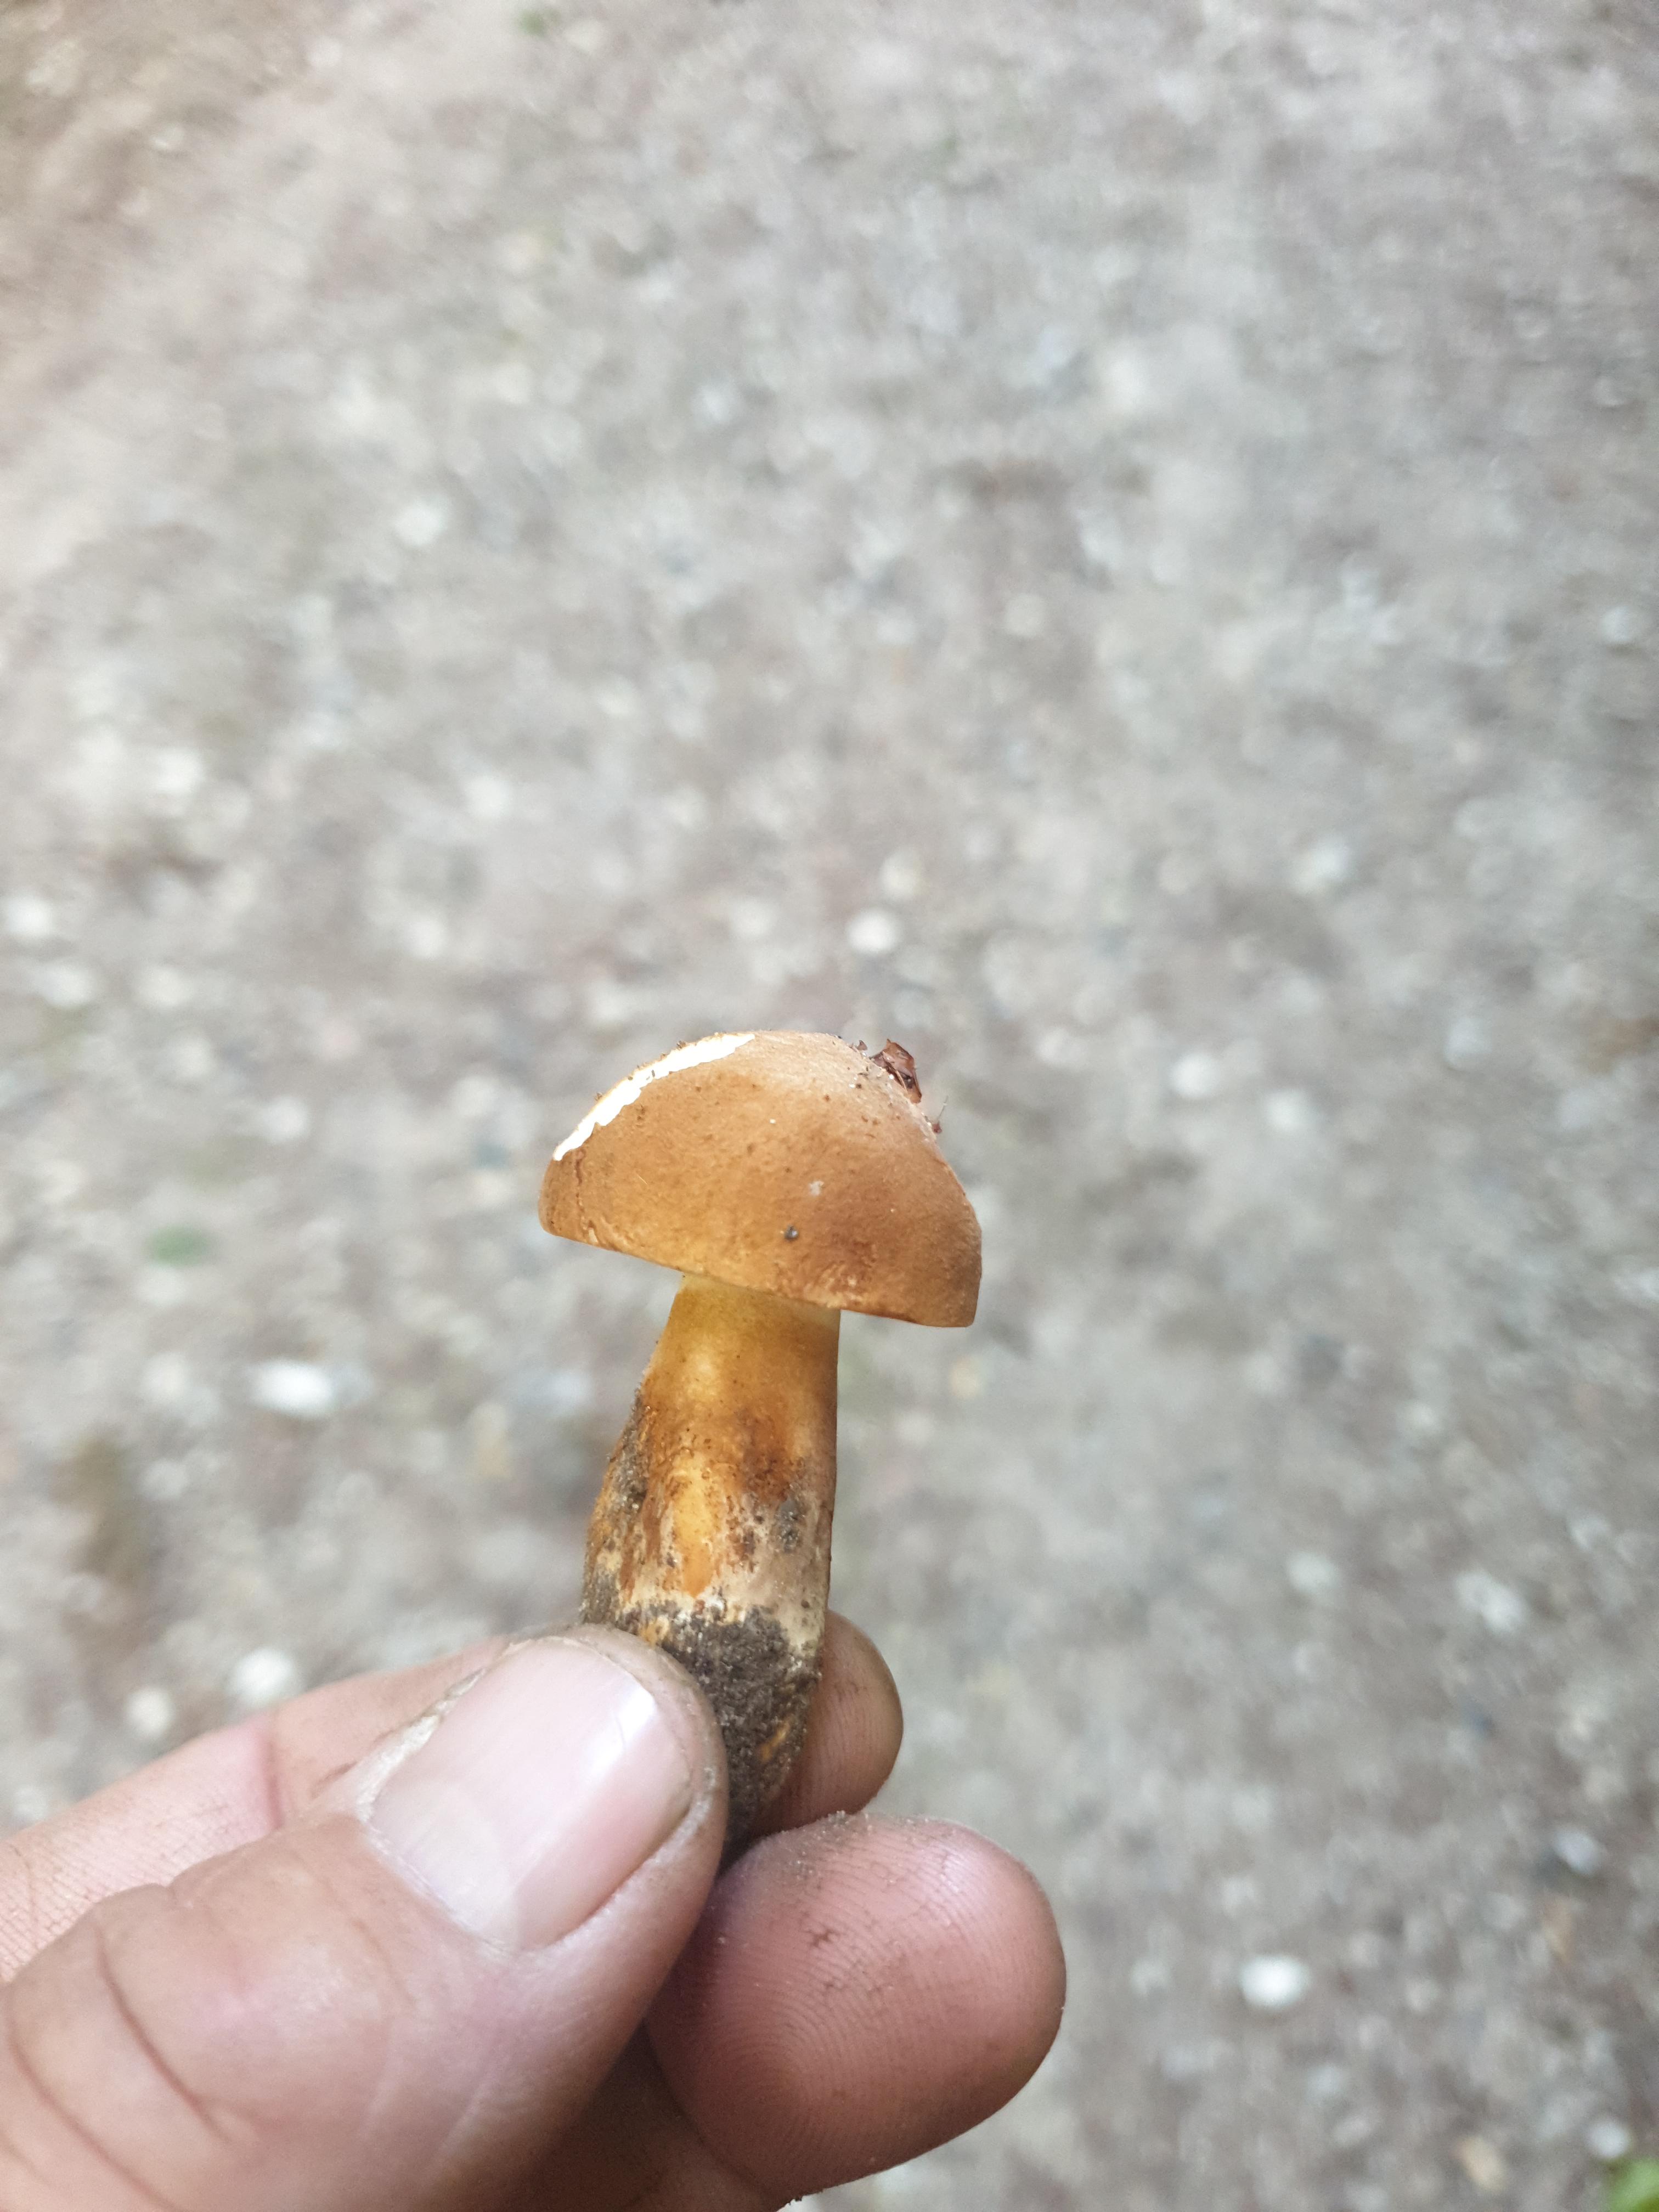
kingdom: Fungi
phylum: Basidiomycota
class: Agaricomycetes
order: Boletales
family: Boletaceae
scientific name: Boletaceae
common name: rørhatfamilien
